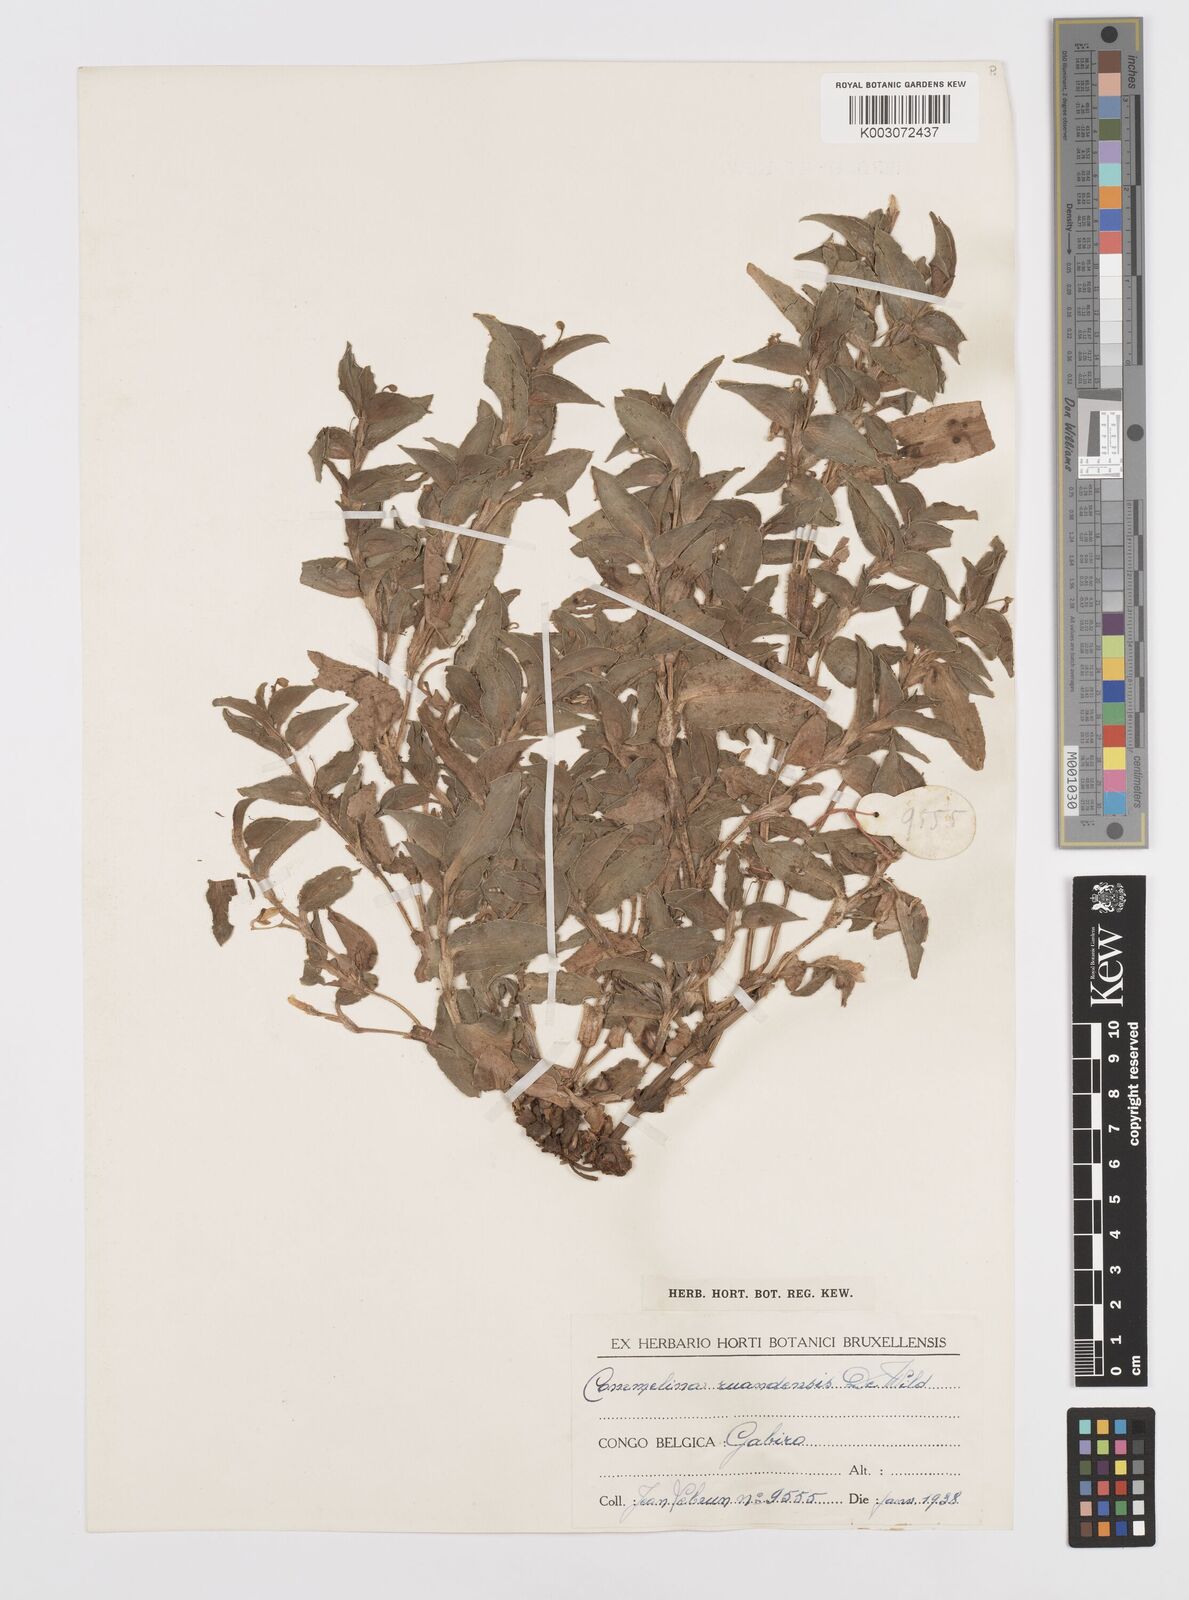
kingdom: Plantae
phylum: Tracheophyta
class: Liliopsida
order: Commelinales
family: Commelinaceae
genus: Commelina
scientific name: Commelina ruandensis
